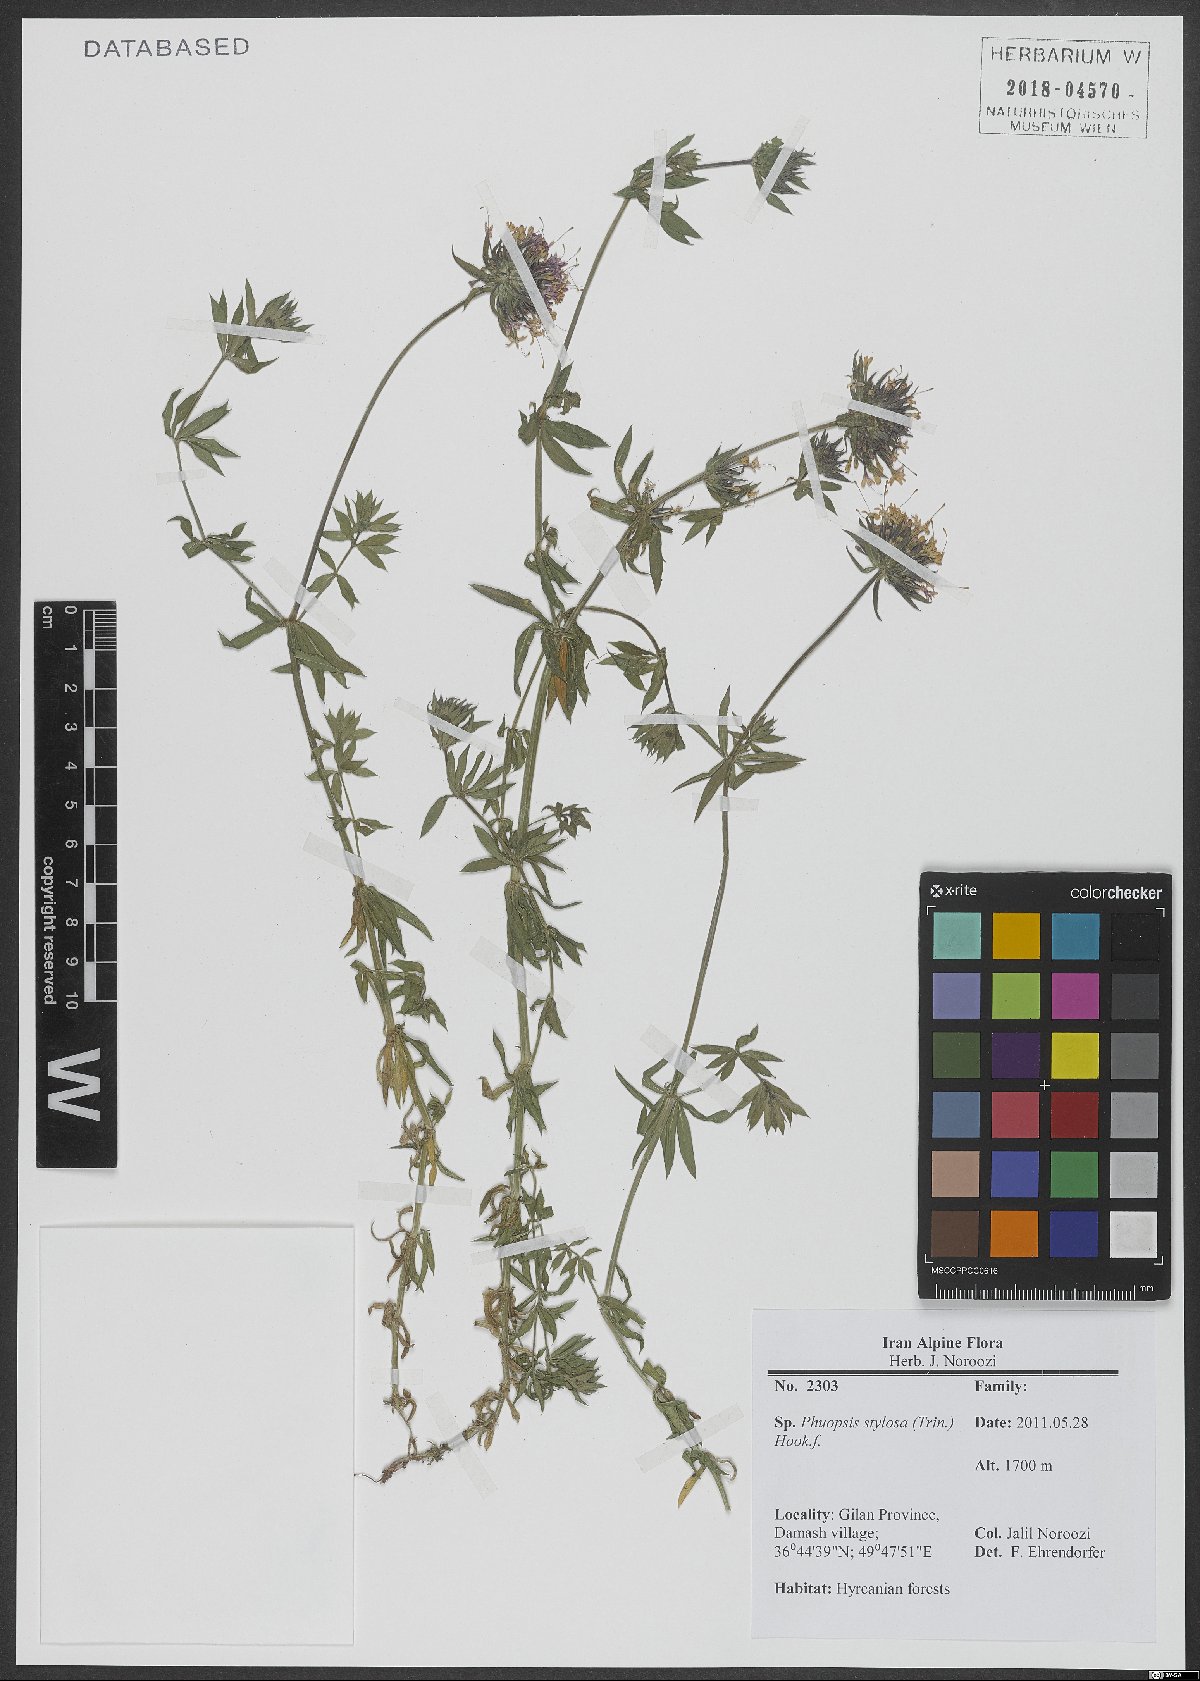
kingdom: Plantae
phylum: Tracheophyta
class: Magnoliopsida
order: Gentianales
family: Rubiaceae
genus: Phuopsis
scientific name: Phuopsis stylosa
